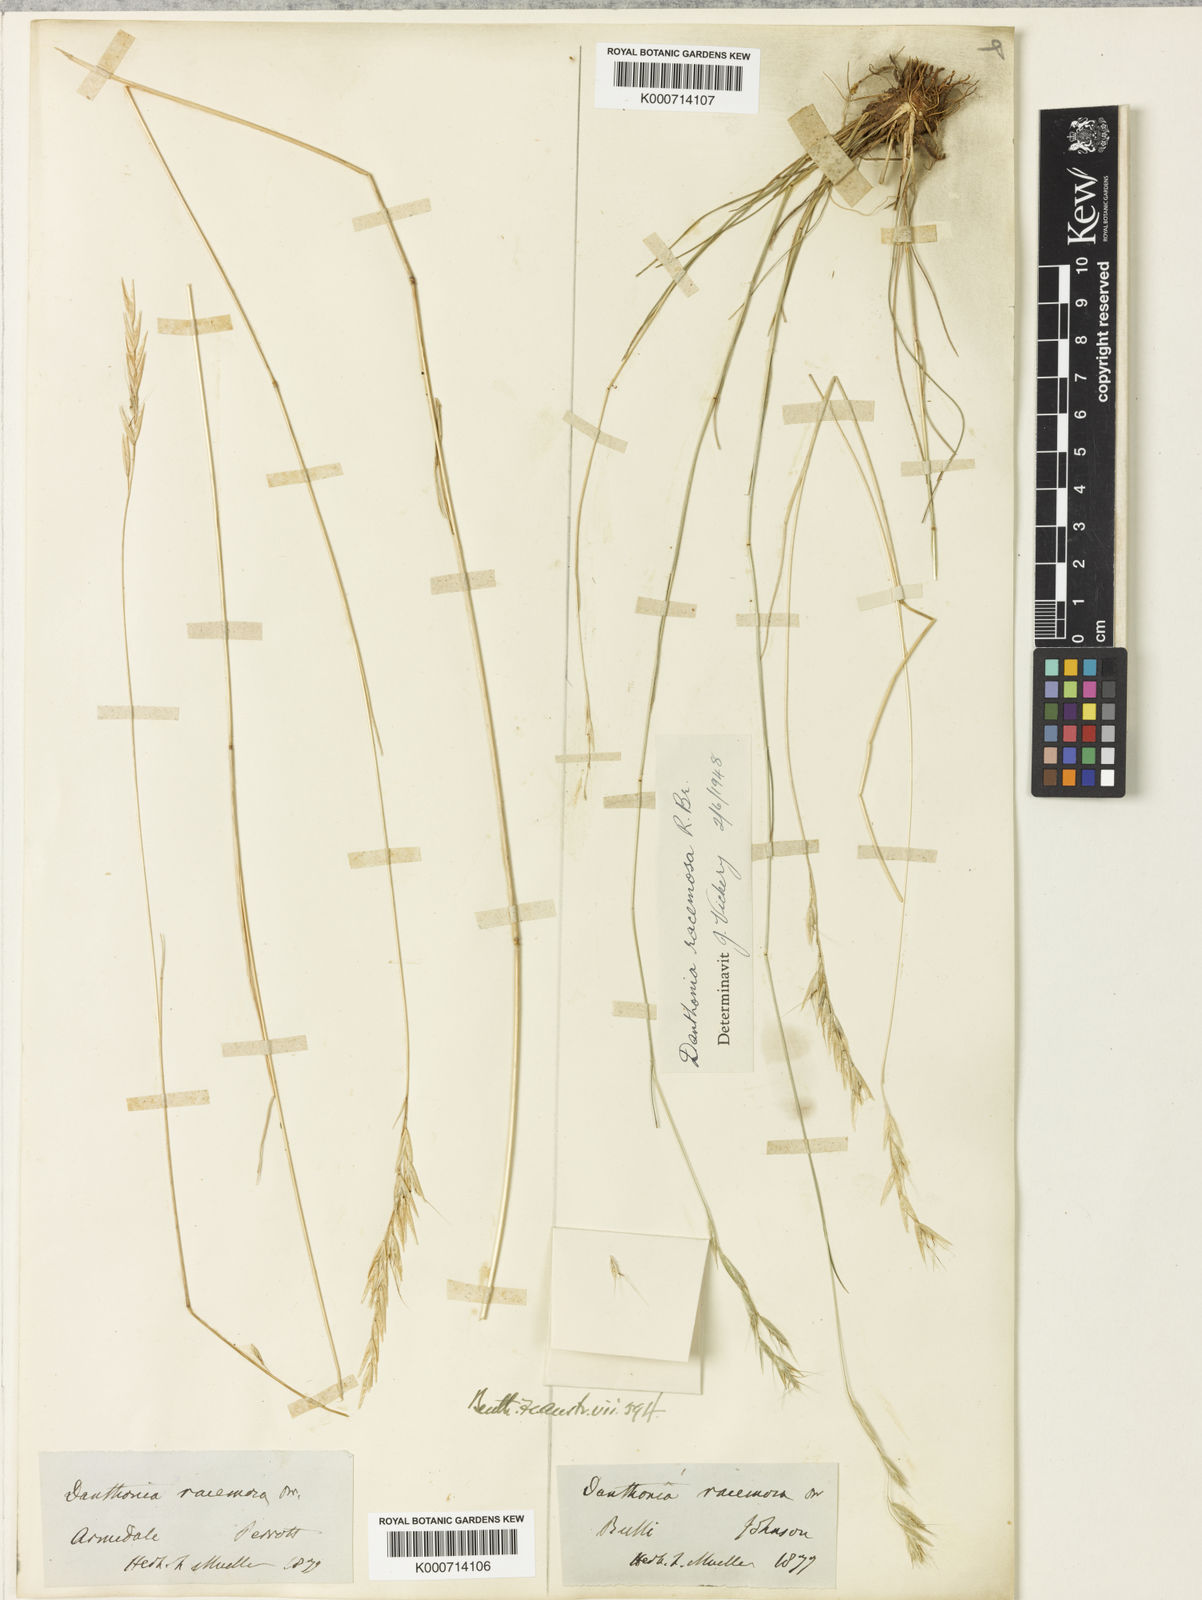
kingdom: Plantae
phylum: Tracheophyta
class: Liliopsida
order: Poales
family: Poaceae
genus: Rytidosperma
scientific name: Rytidosperma racemosum
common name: Wallaby-grass
